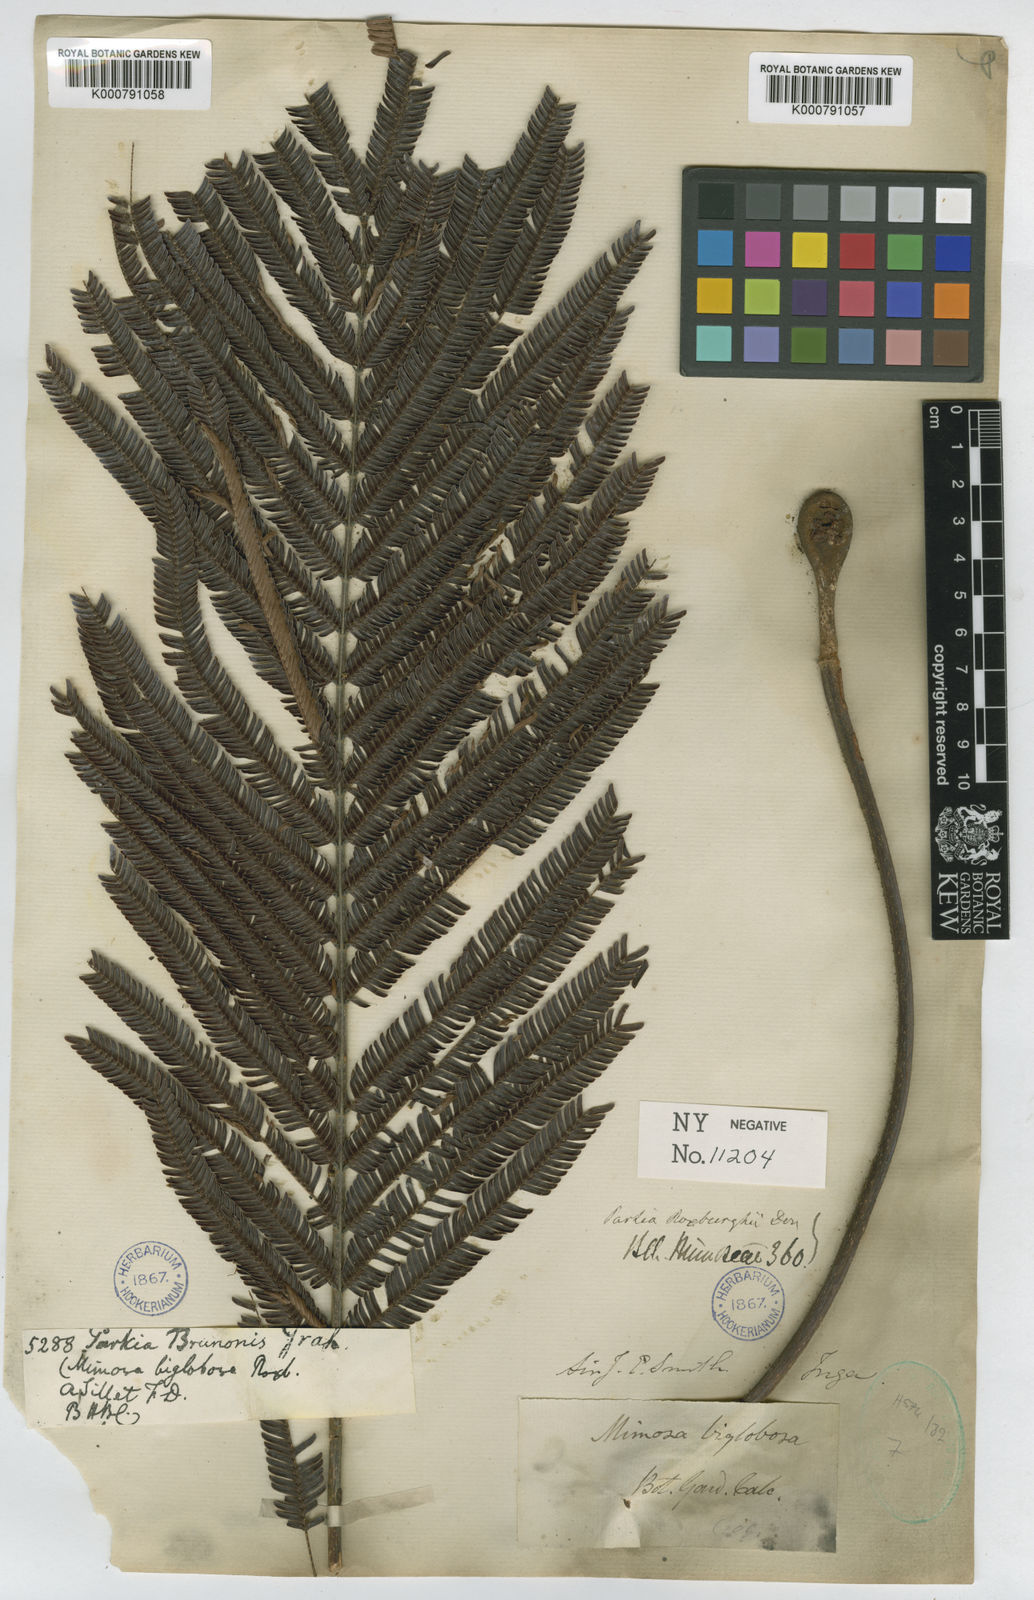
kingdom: Plantae
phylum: Tracheophyta
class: Magnoliopsida
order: Fabales
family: Fabaceae
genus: Parkia
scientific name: Parkia timoriana
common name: Legume
